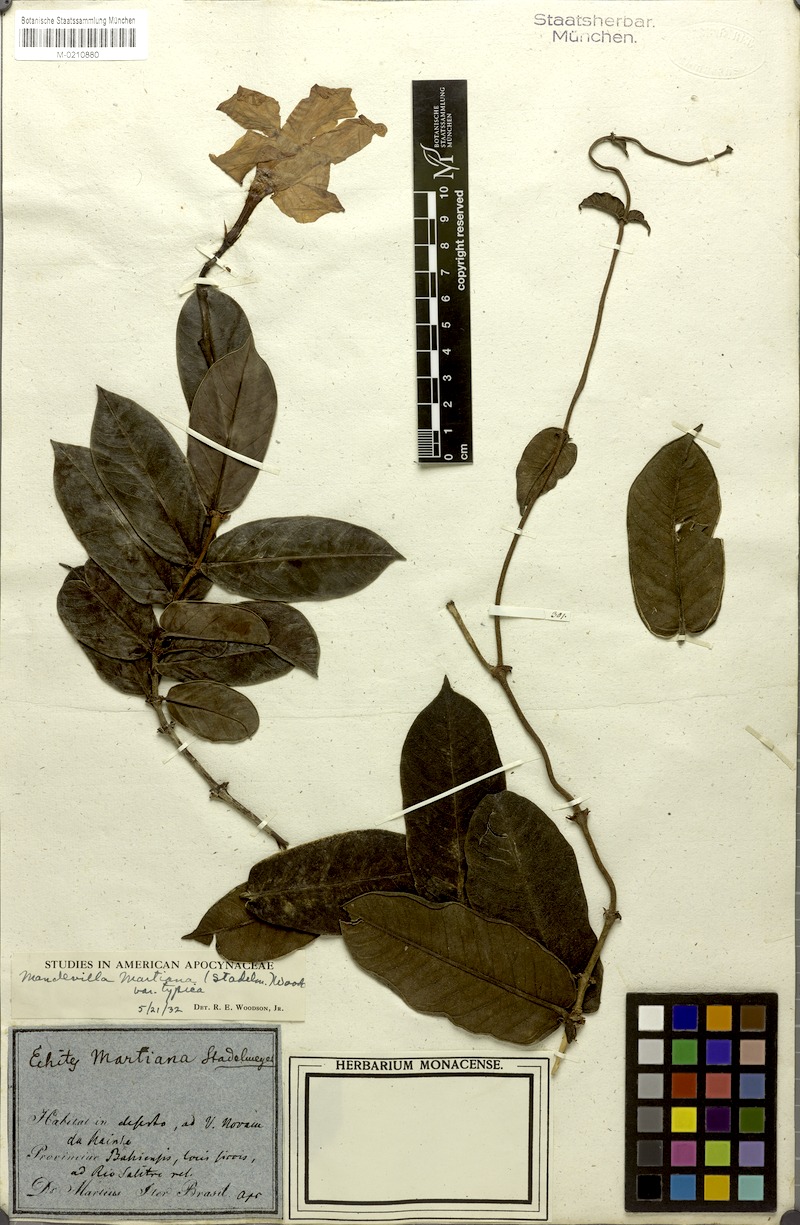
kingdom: Plantae
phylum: Tracheophyta
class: Magnoliopsida
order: Gentianales
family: Apocynaceae
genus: Mandevilla
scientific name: Mandevilla martiana
